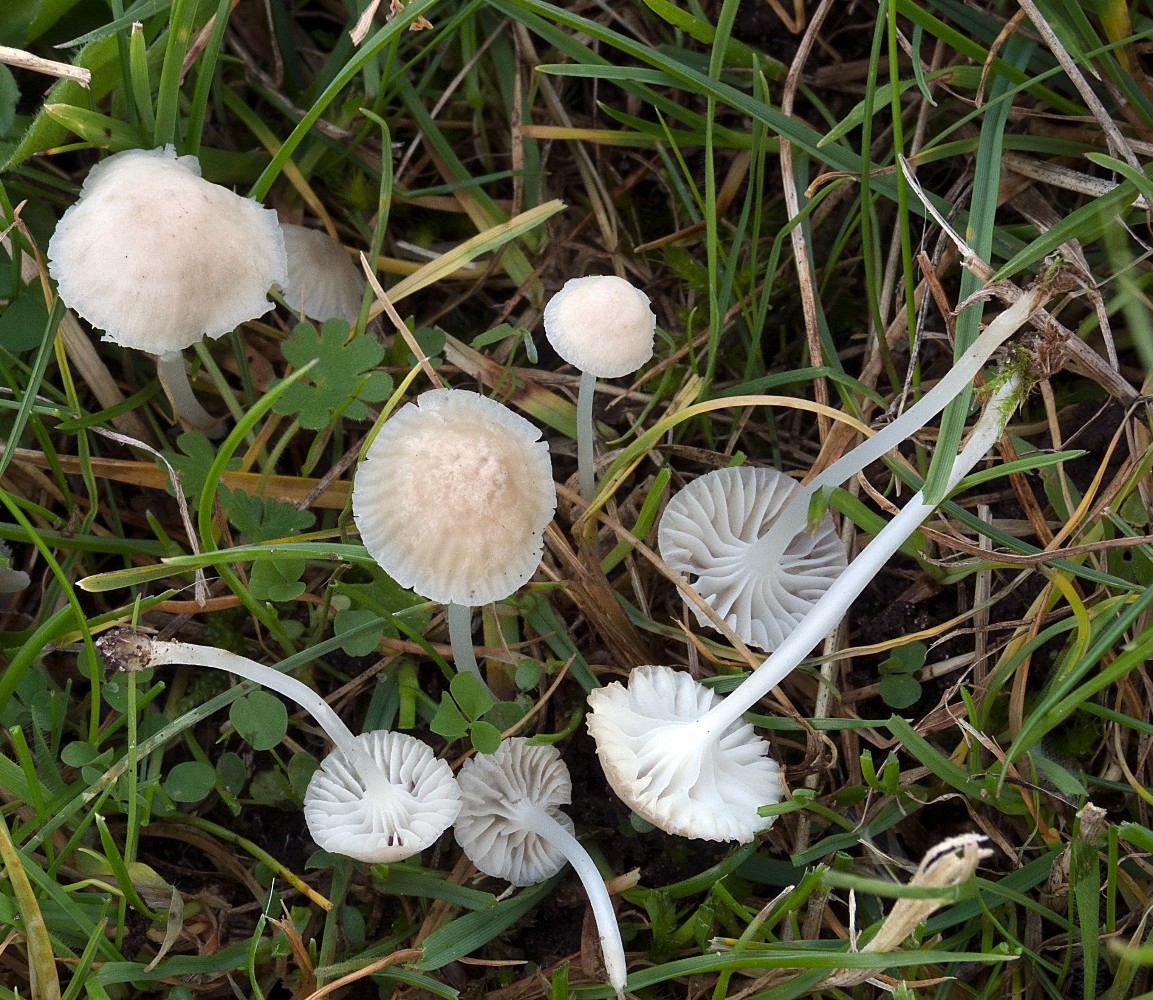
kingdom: Fungi
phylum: Basidiomycota
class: Agaricomycetes
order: Agaricales
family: Mycenaceae
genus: Hemimycena
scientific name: Hemimycena mairei
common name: voks-huesvamp
